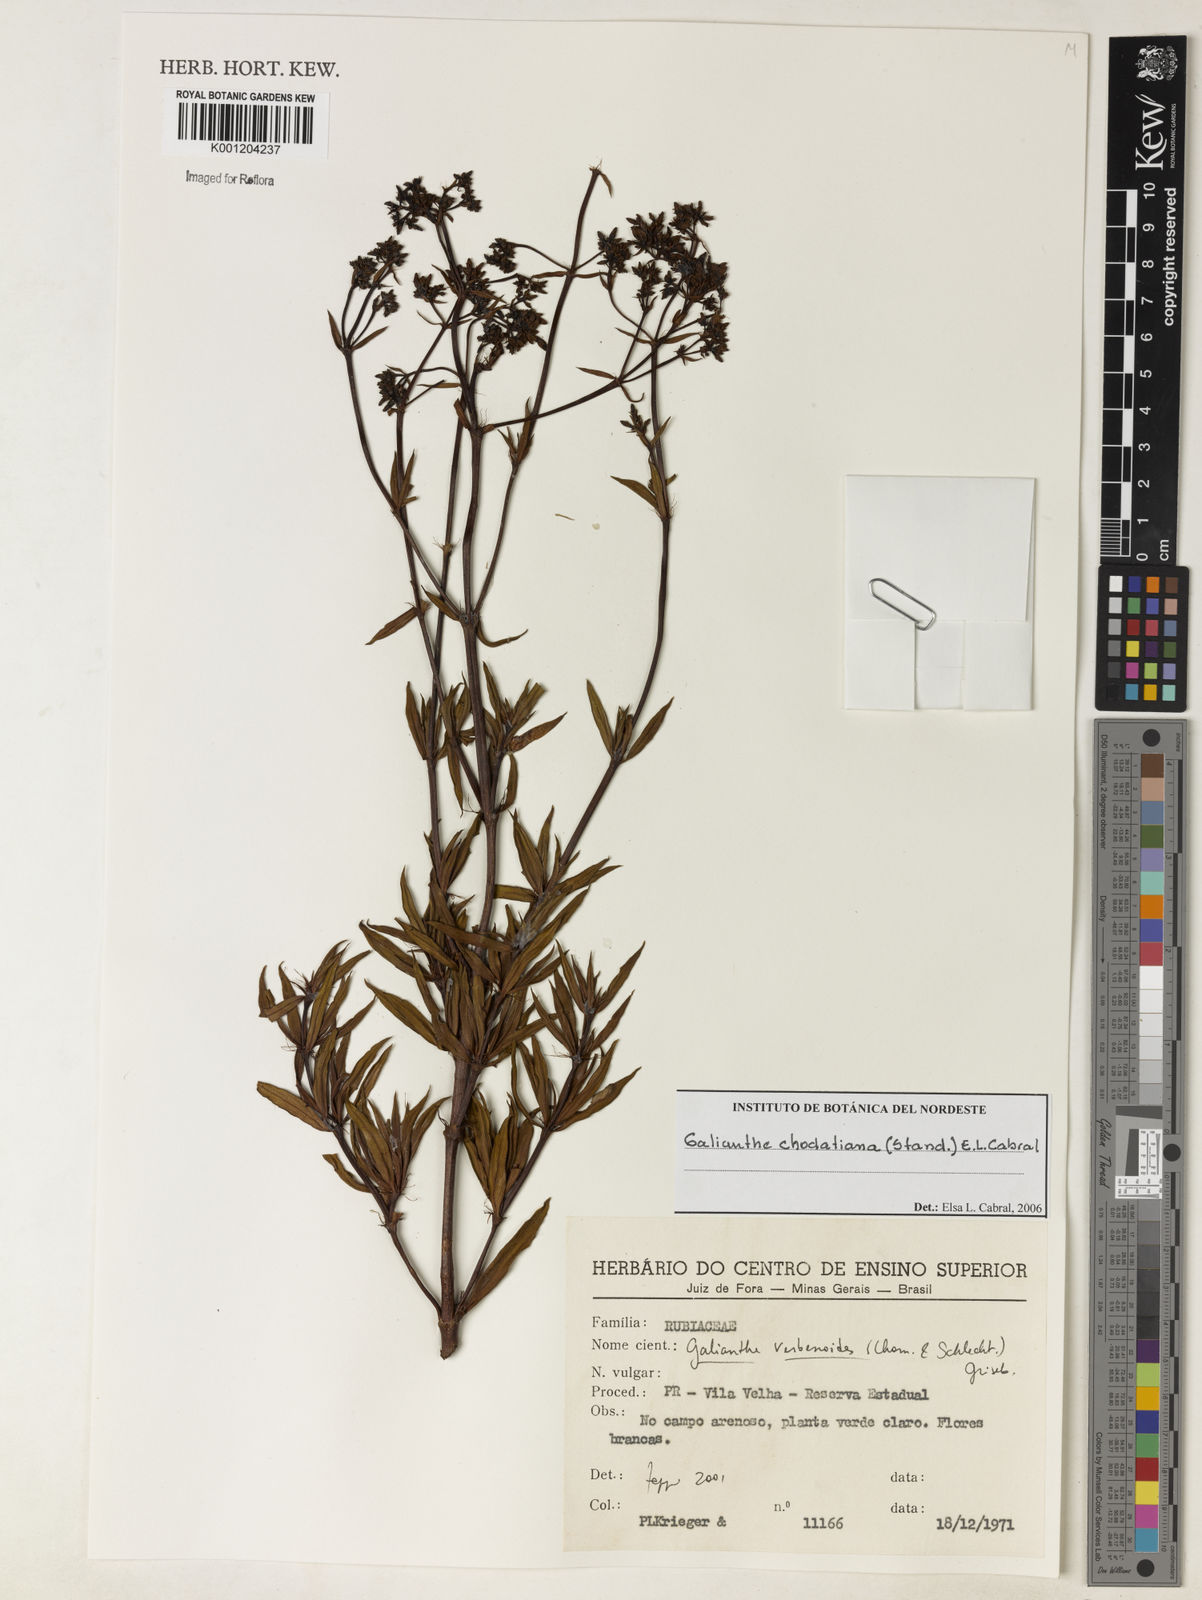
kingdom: Plantae
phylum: Tracheophyta
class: Magnoliopsida
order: Gentianales
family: Rubiaceae
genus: Galianthe
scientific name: Galianthe chodatiana
